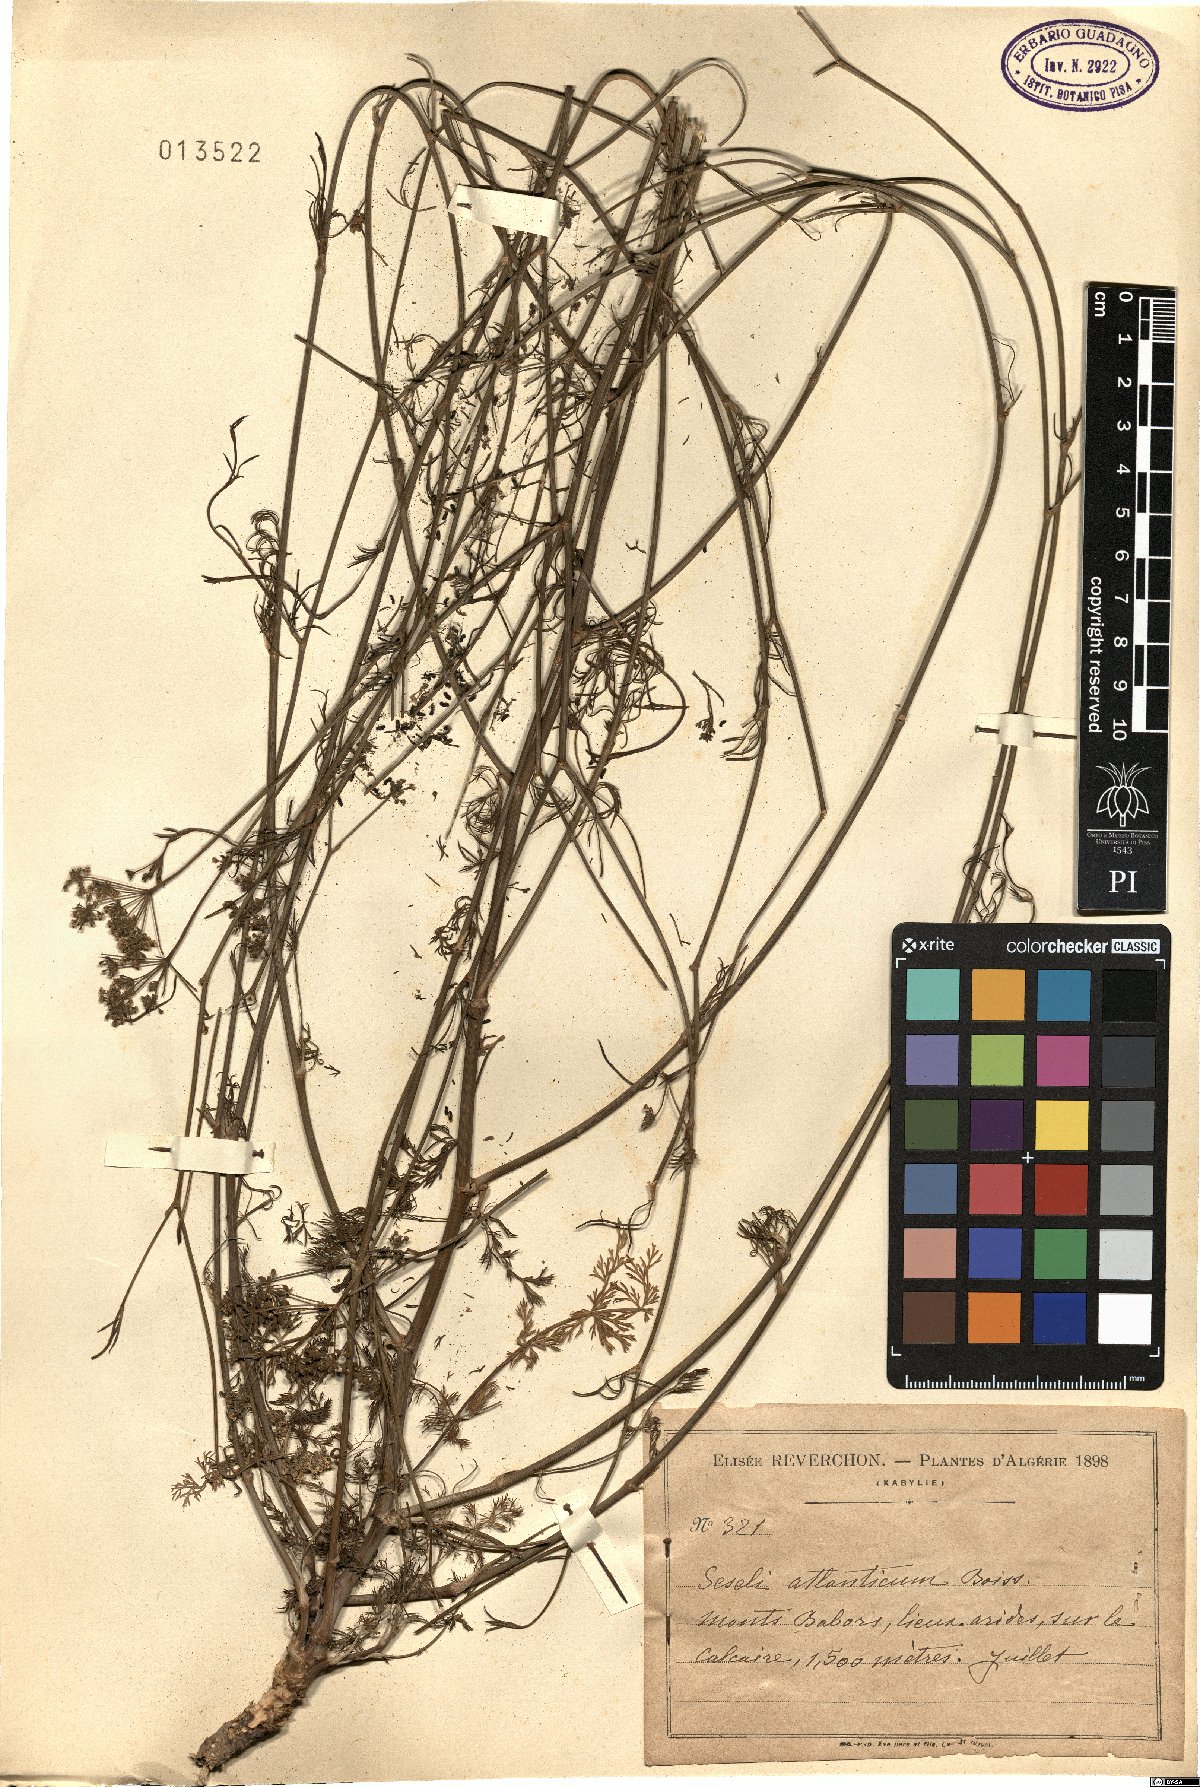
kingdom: Plantae
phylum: Tracheophyta
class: Magnoliopsida
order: Apiales
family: Apiaceae
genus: Seseli
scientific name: Seseli atlanticum
